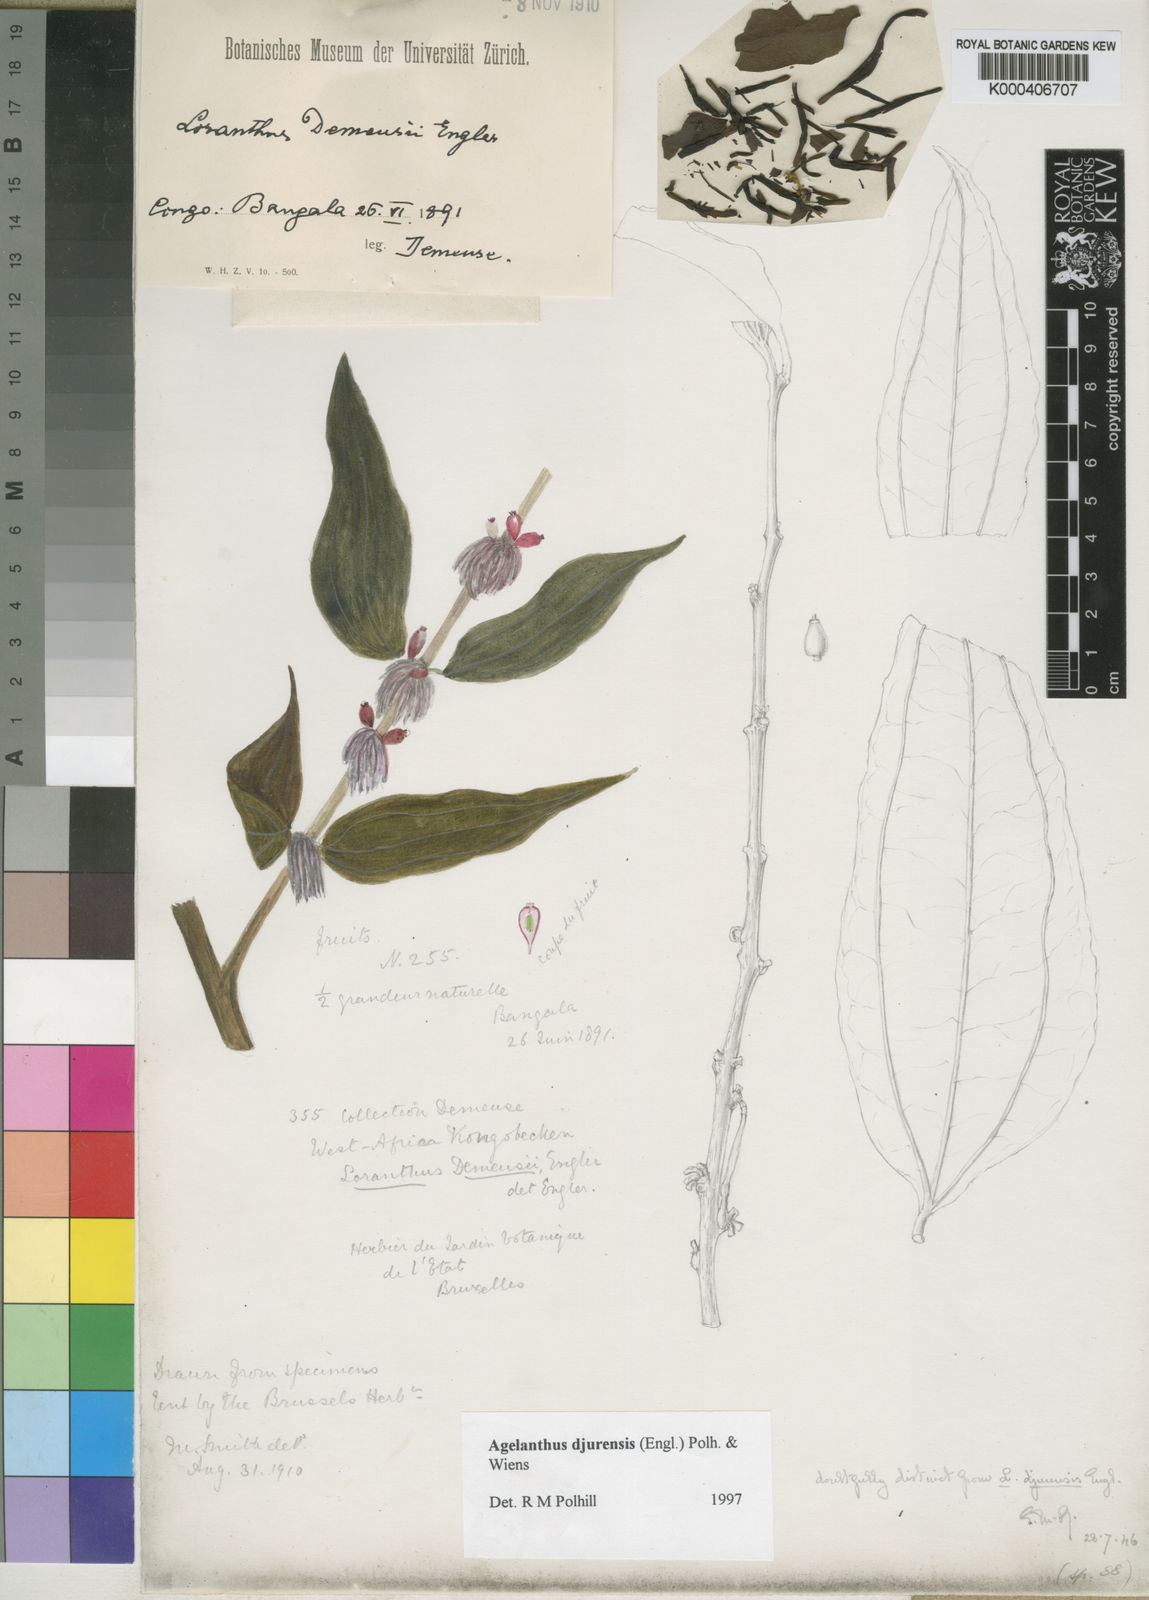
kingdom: Plantae
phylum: Tracheophyta
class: Magnoliopsida
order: Santalales
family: Loranthaceae
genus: Agelanthus
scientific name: Agelanthus djurensis
